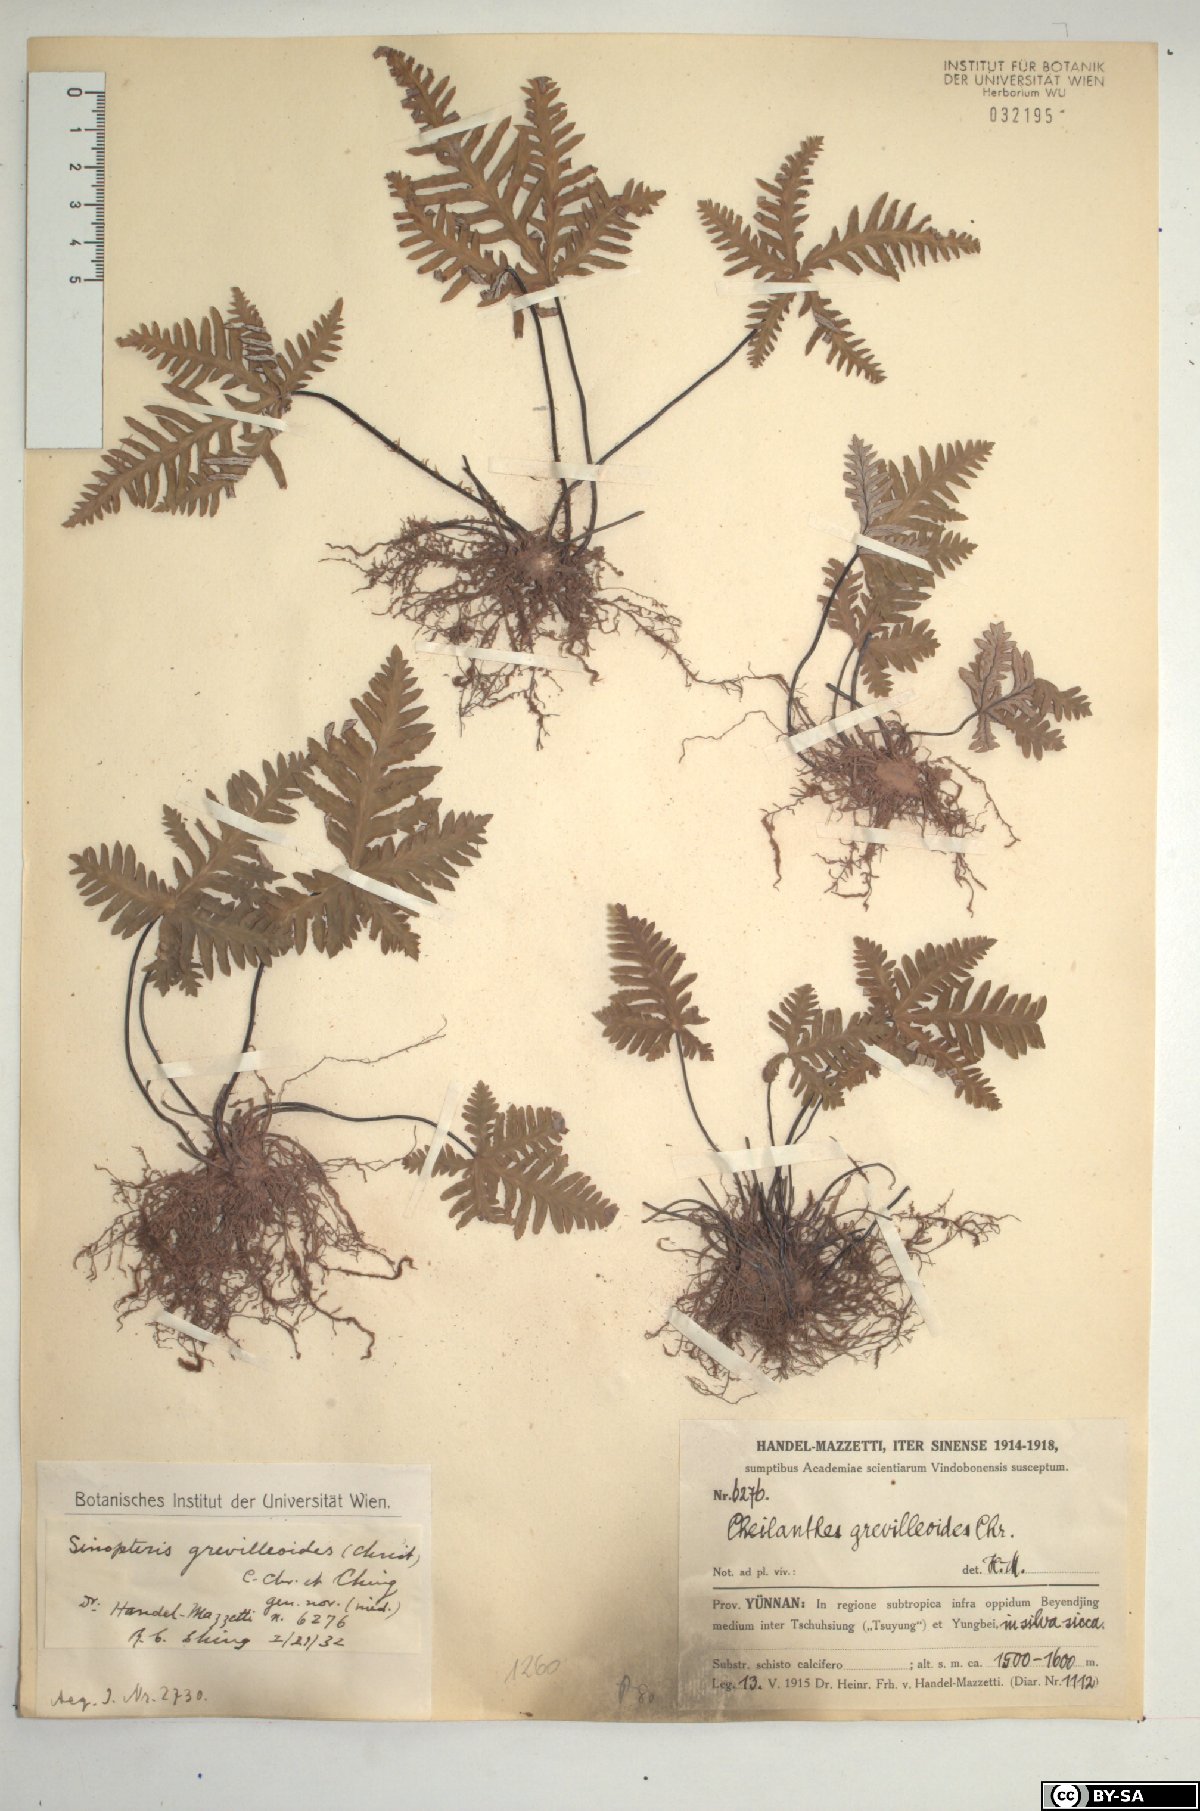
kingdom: Plantae
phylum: Tracheophyta
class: Polypodiopsida
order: Polypodiales
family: Pteridaceae
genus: Aleuritopteris
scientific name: Aleuritopteris grevilleoides
